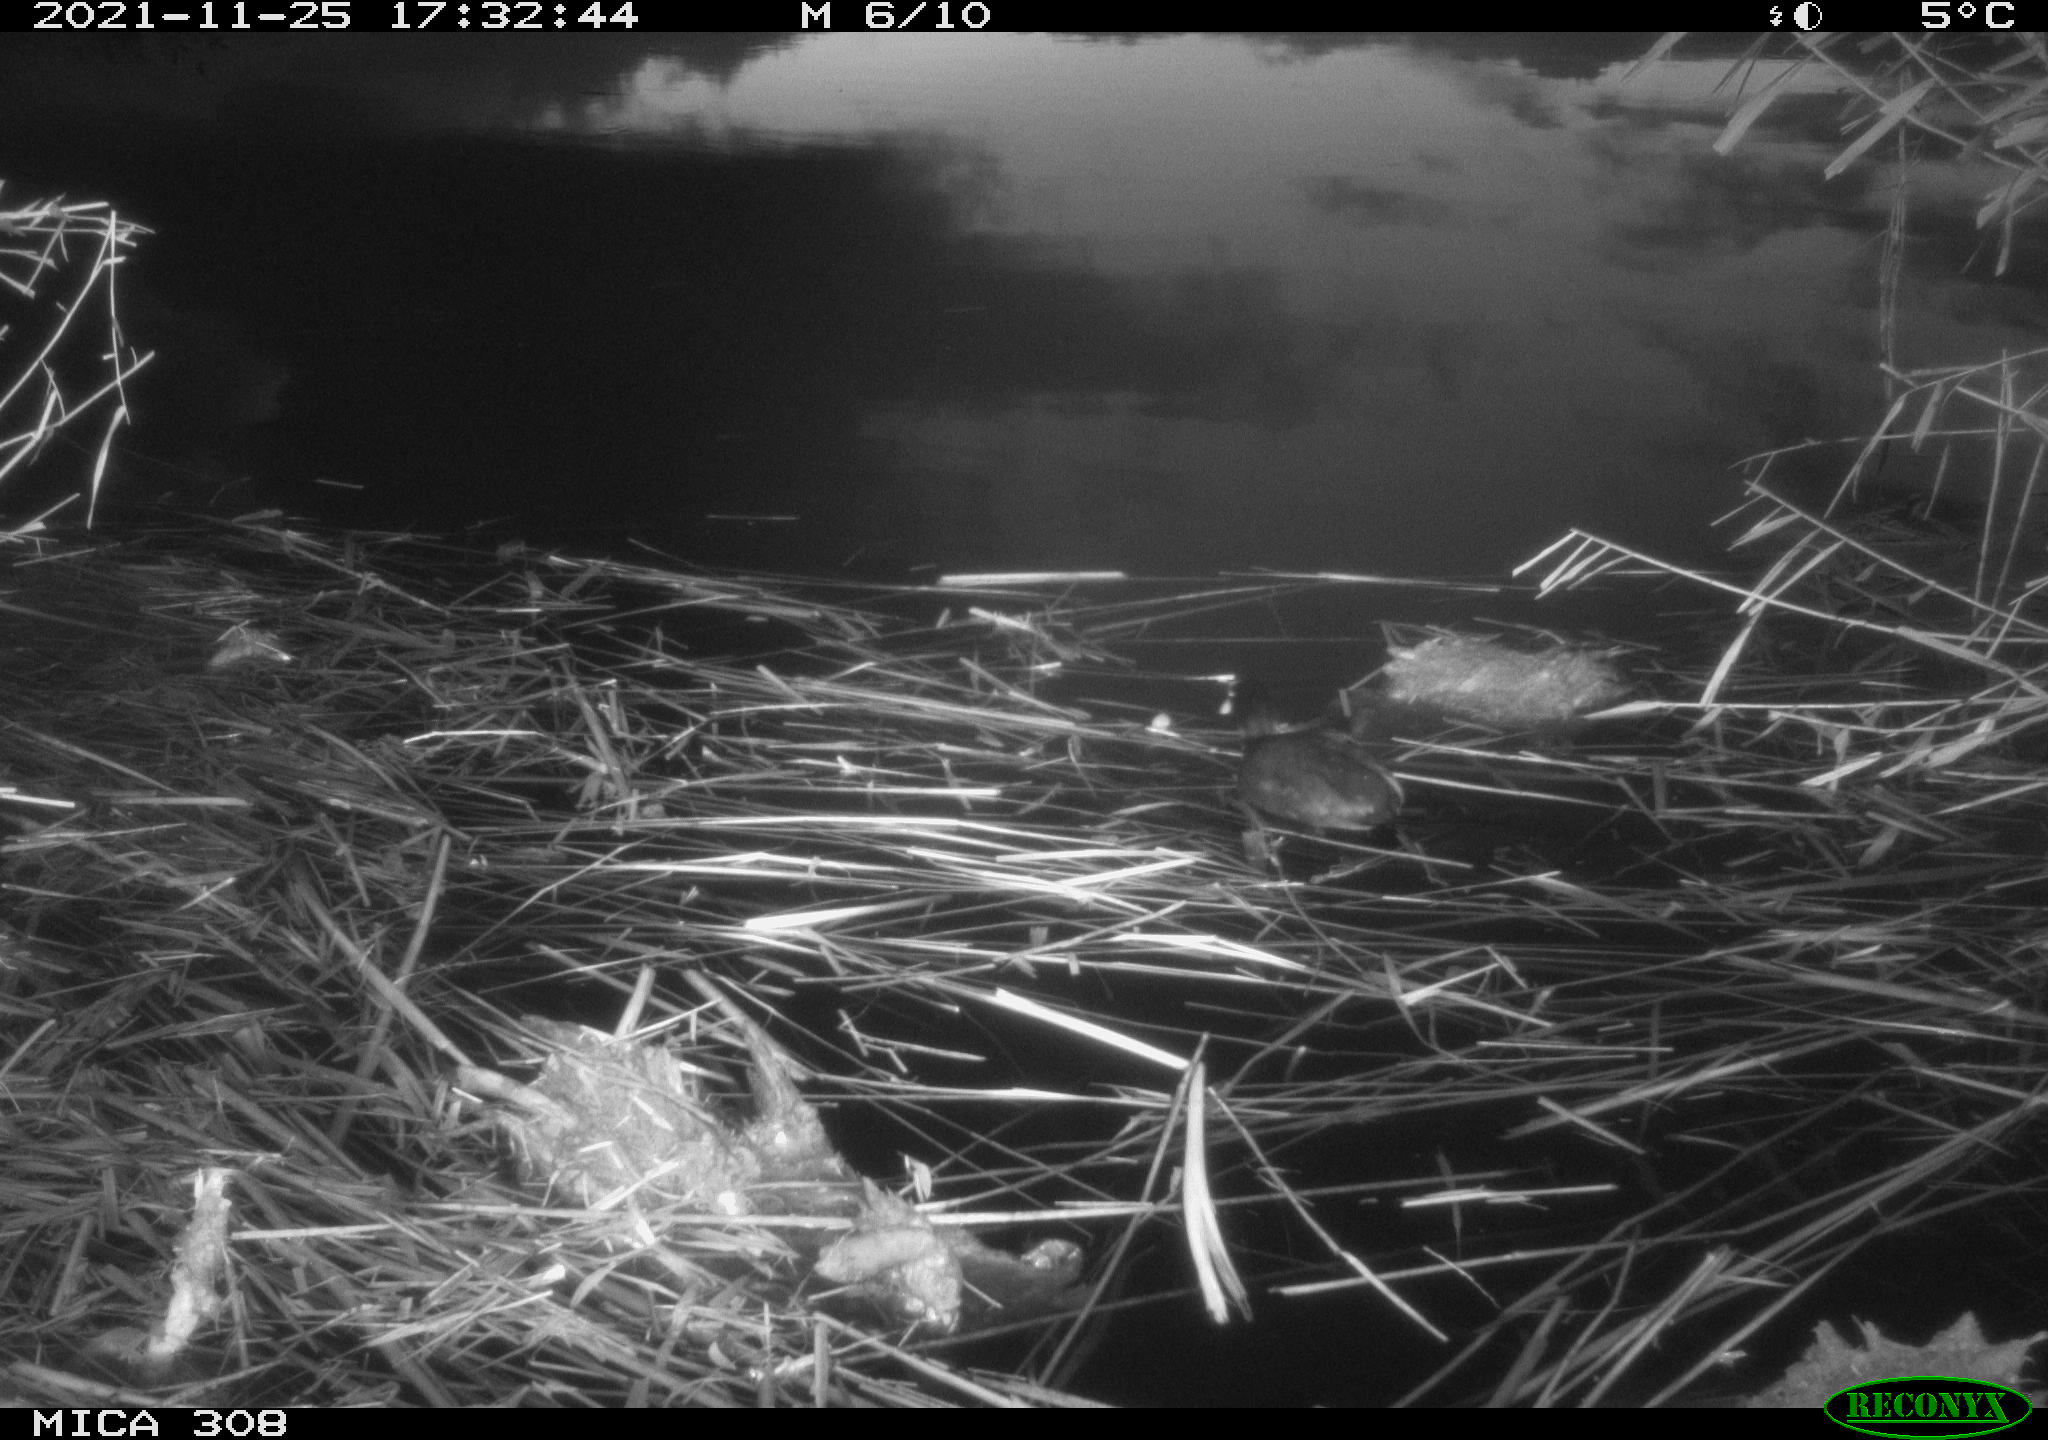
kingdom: Animalia
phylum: Chordata
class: Aves
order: Gruiformes
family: Rallidae
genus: Fulica
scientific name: Fulica atra
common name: Eurasian coot
